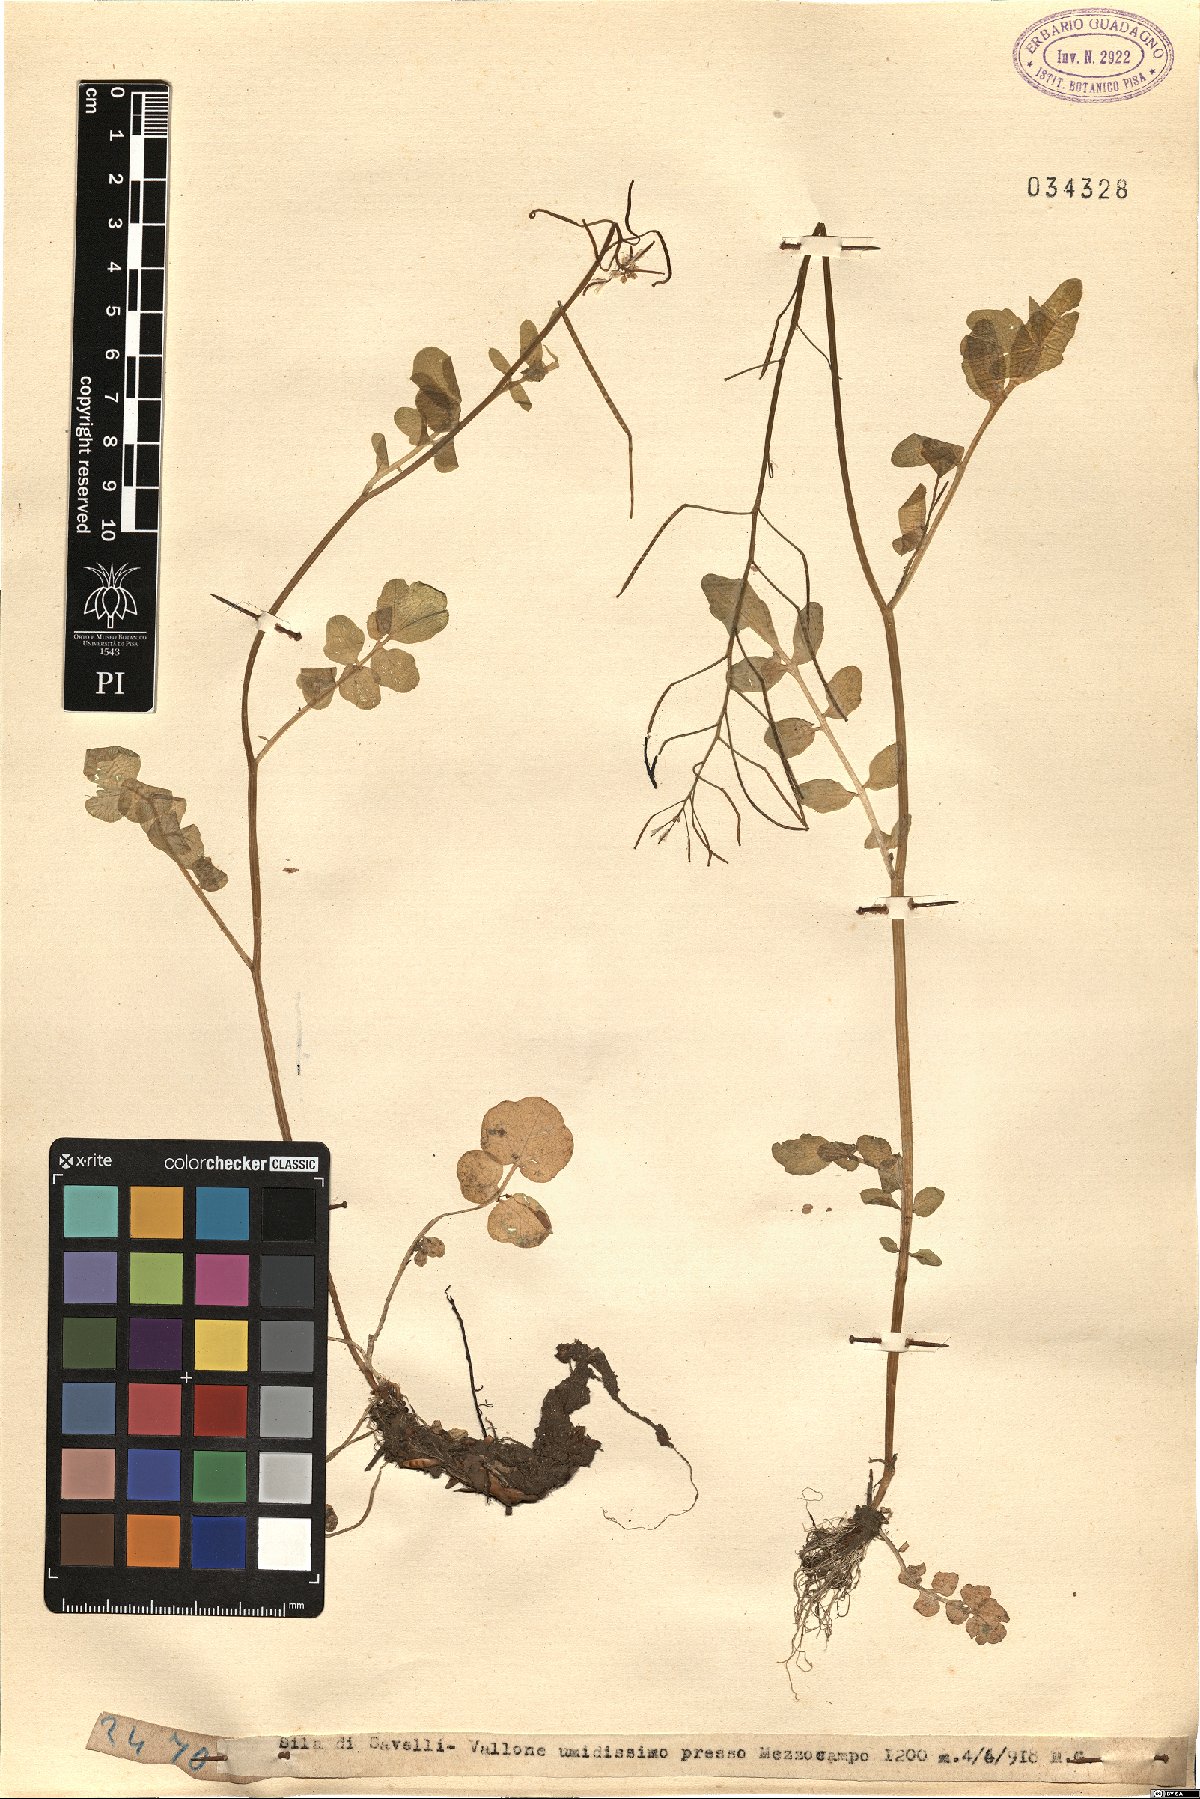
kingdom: Plantae
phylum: Tracheophyta
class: Magnoliopsida
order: Brassicales
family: Brassicaceae
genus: Cardamine
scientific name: Cardamine
